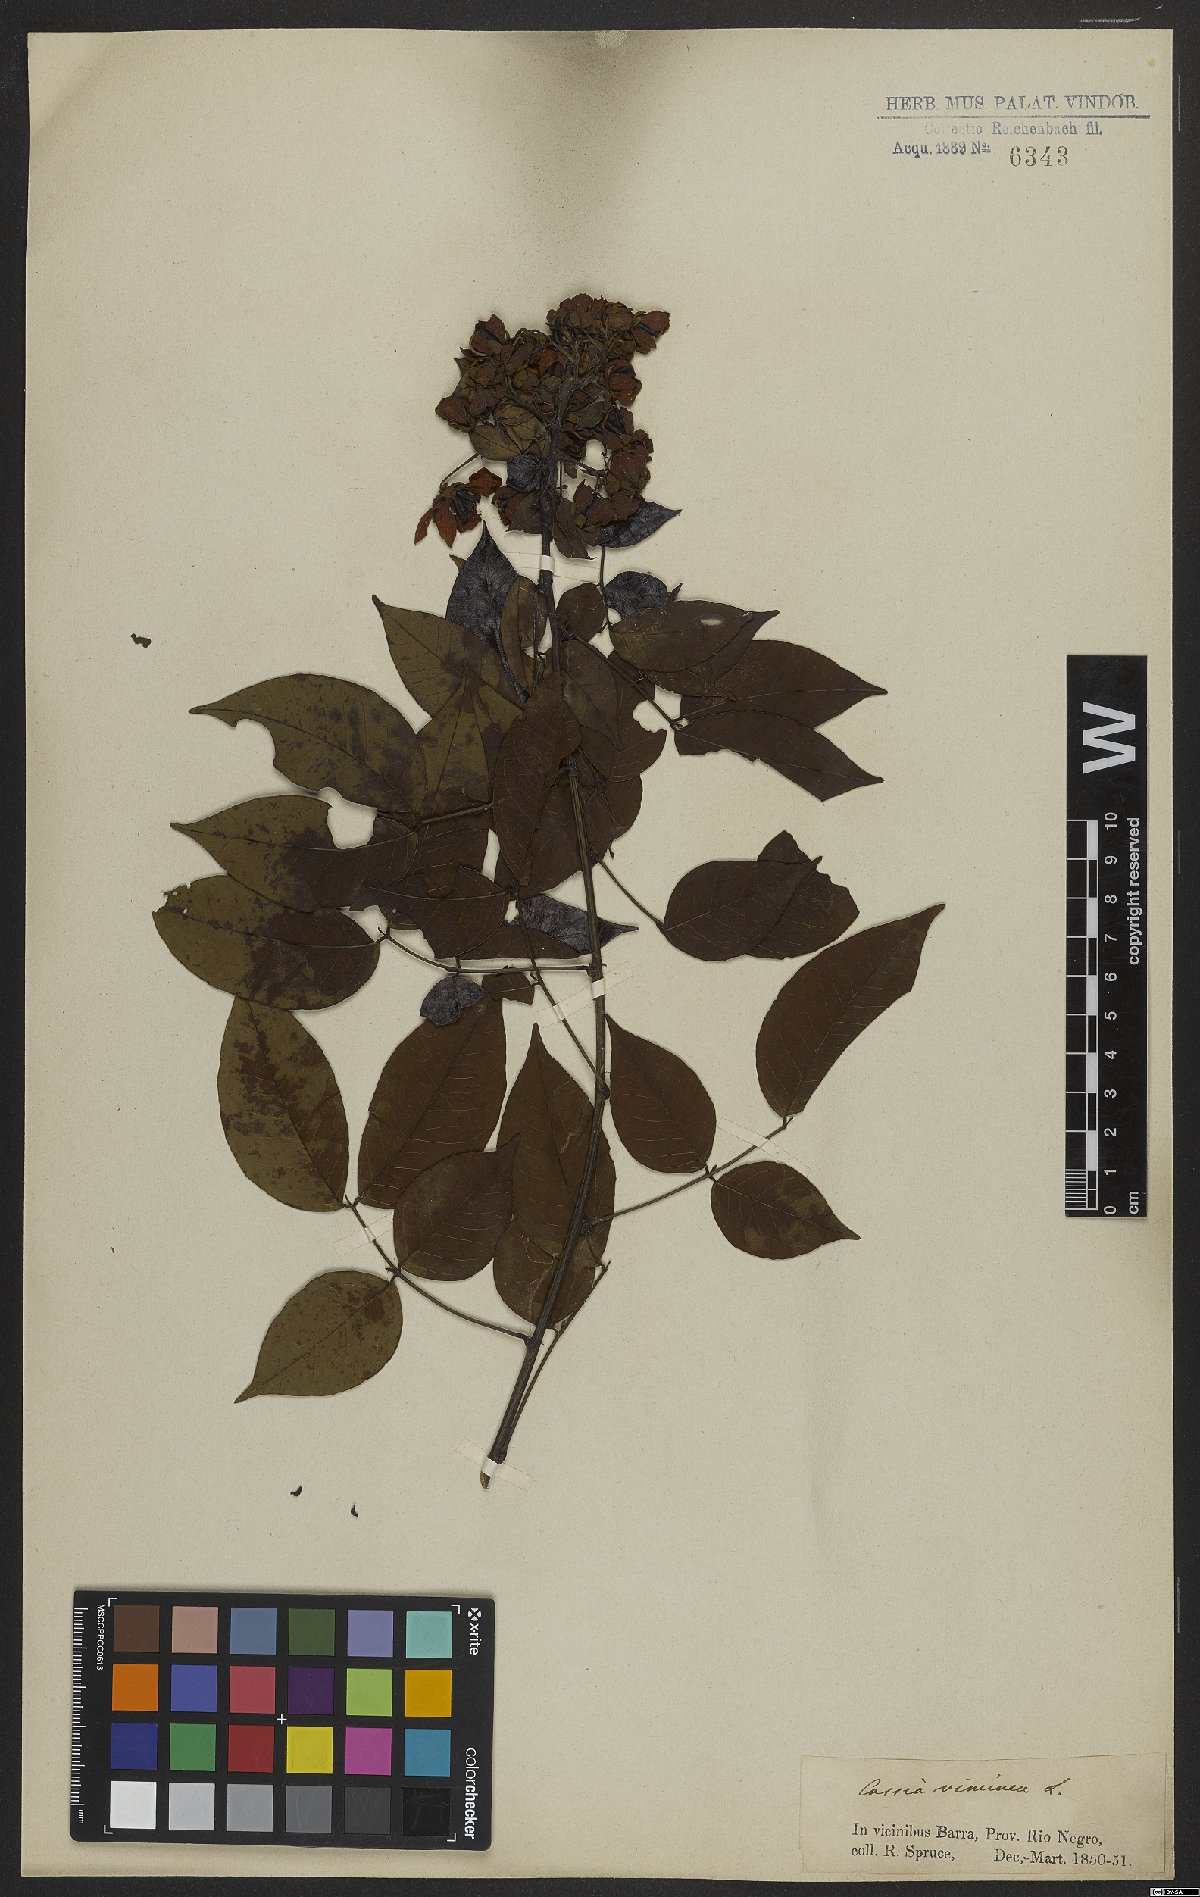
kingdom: Plantae
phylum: Tracheophyta
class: Magnoliopsida
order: Fabales
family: Fabaceae
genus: Senna
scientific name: Senna viminea
